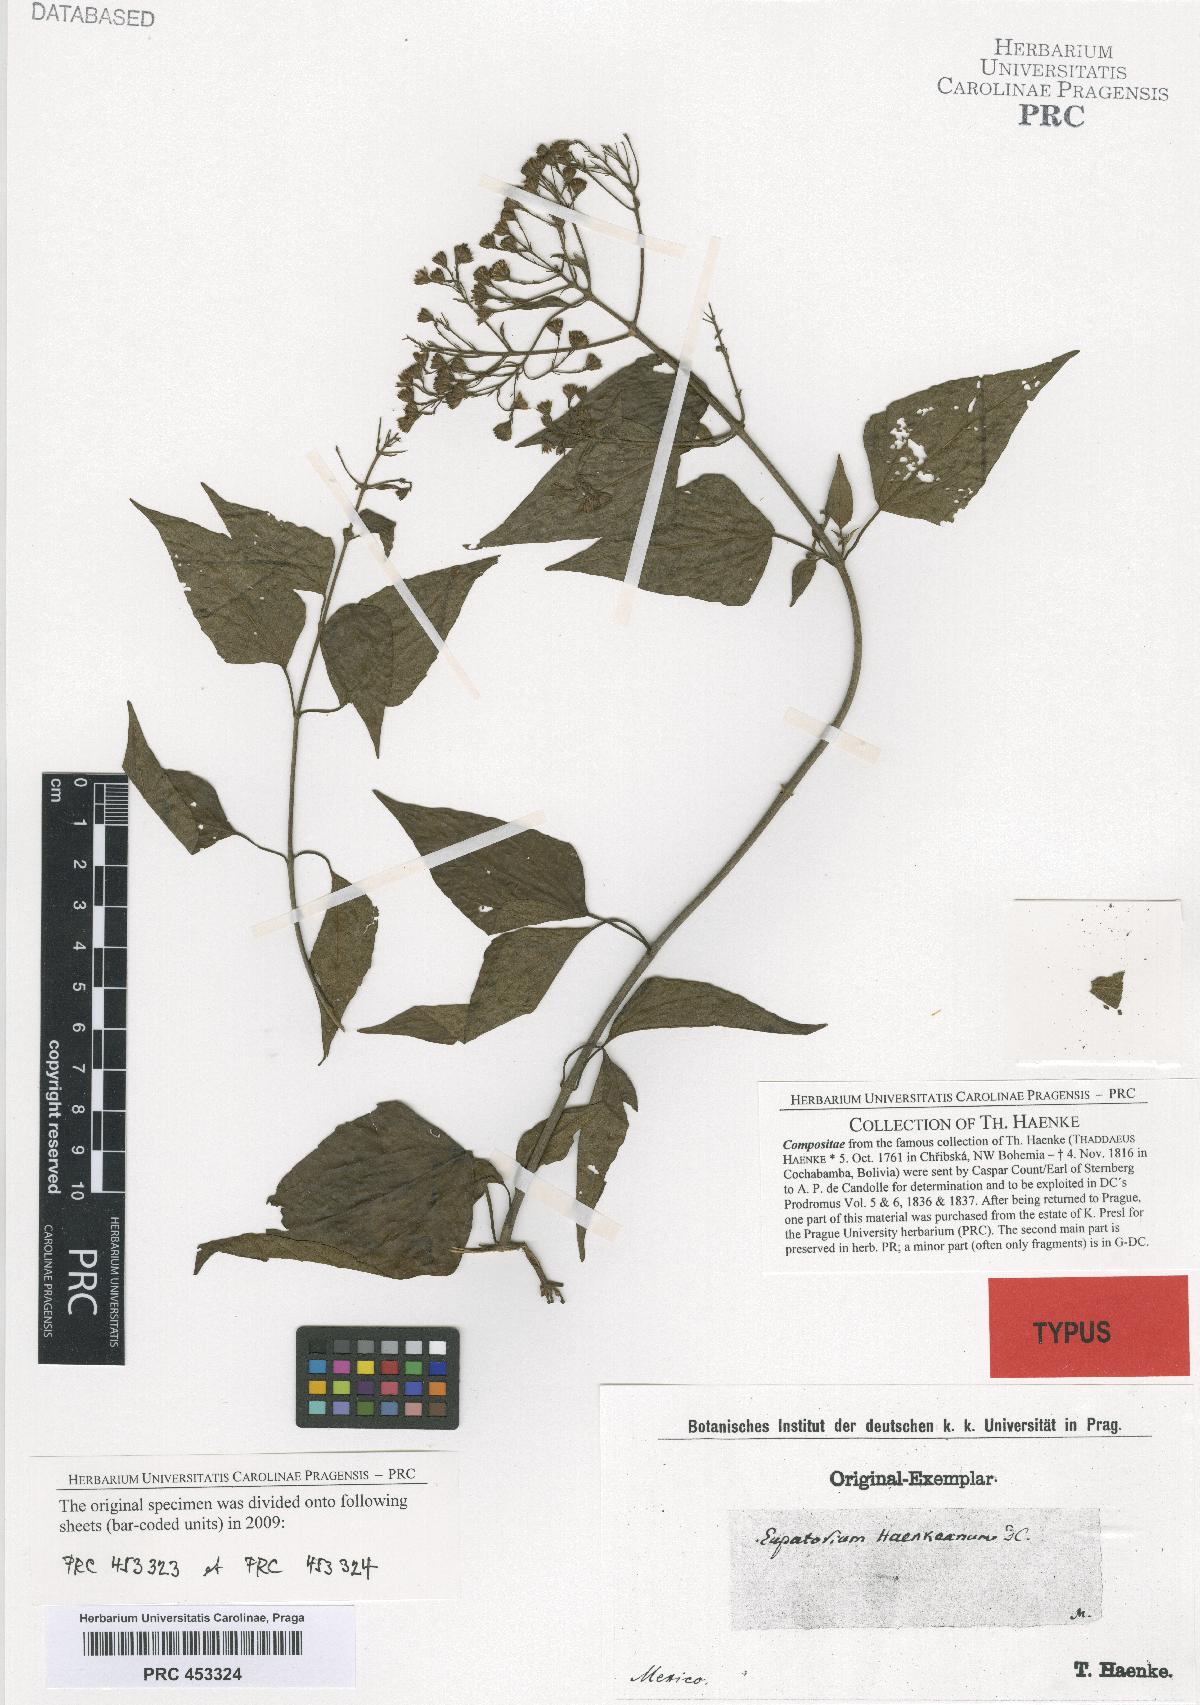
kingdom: Plantae
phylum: Tracheophyta
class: Magnoliopsida
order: Asterales
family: Asteraceae
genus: Chromolaena
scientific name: Chromolaena haenkeana
